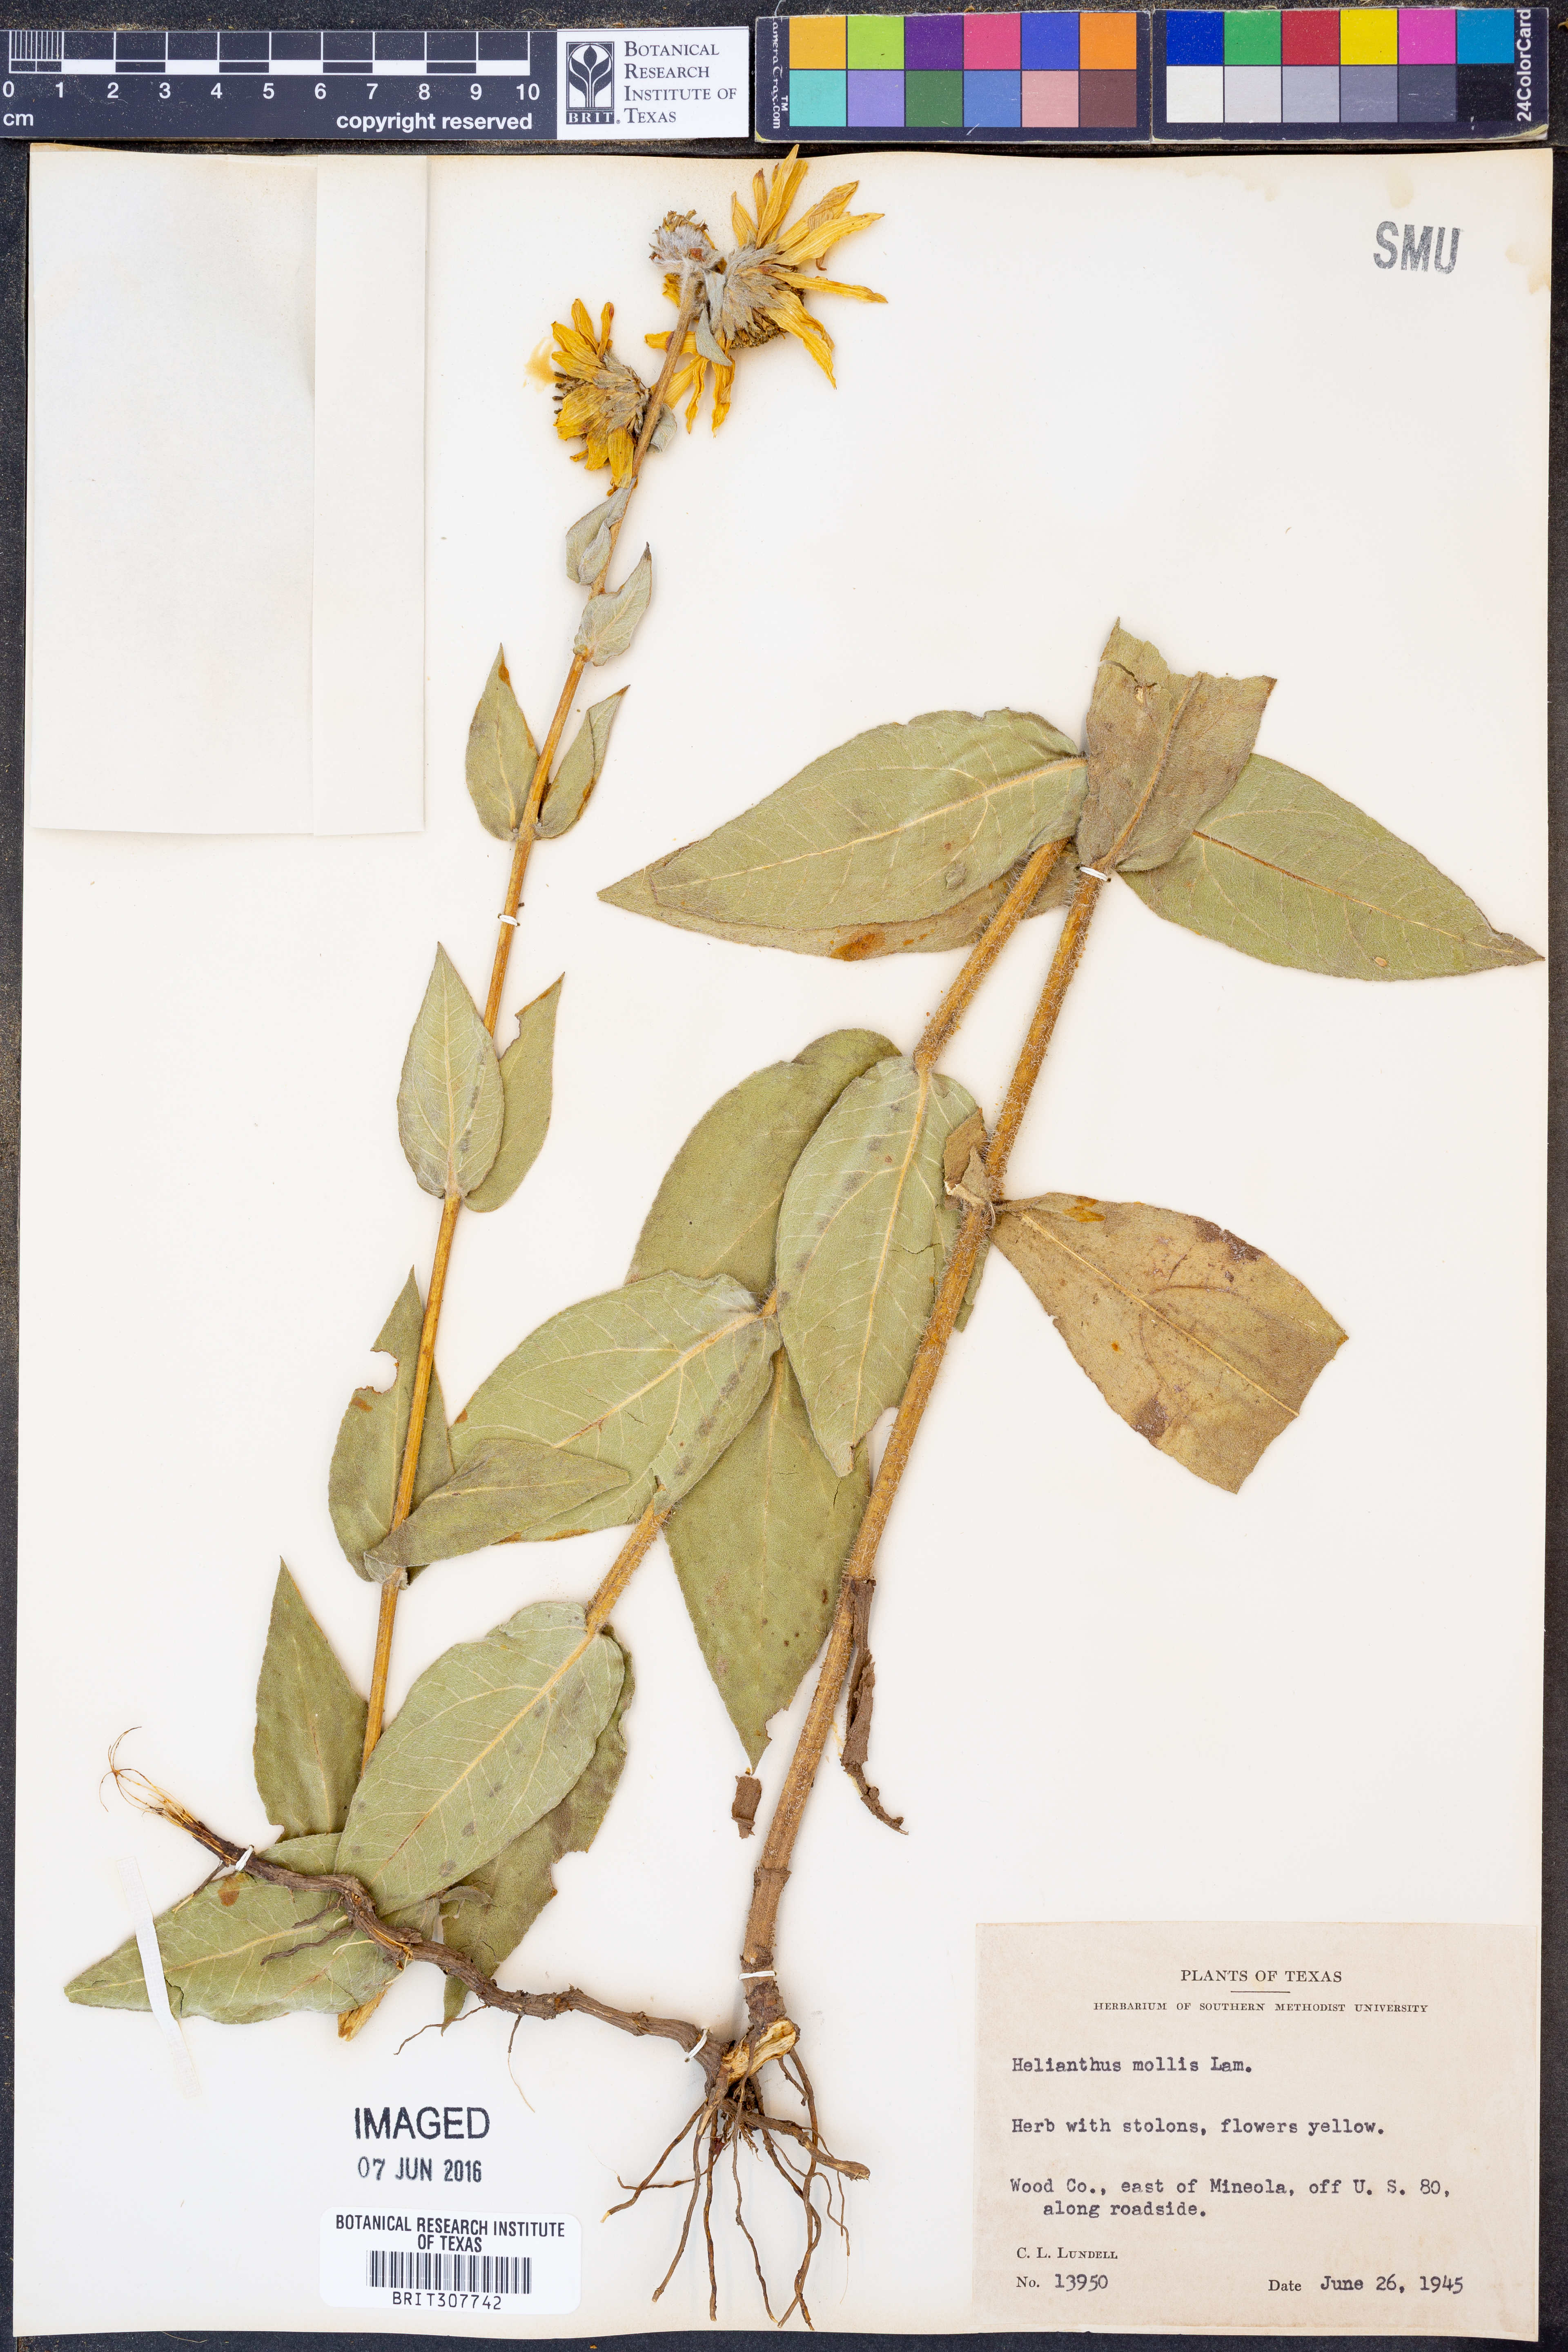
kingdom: Plantae
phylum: Tracheophyta
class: Magnoliopsida
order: Asterales
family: Asteraceae
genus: Helianthus
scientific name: Helianthus mollis
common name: Ashy sunflower
